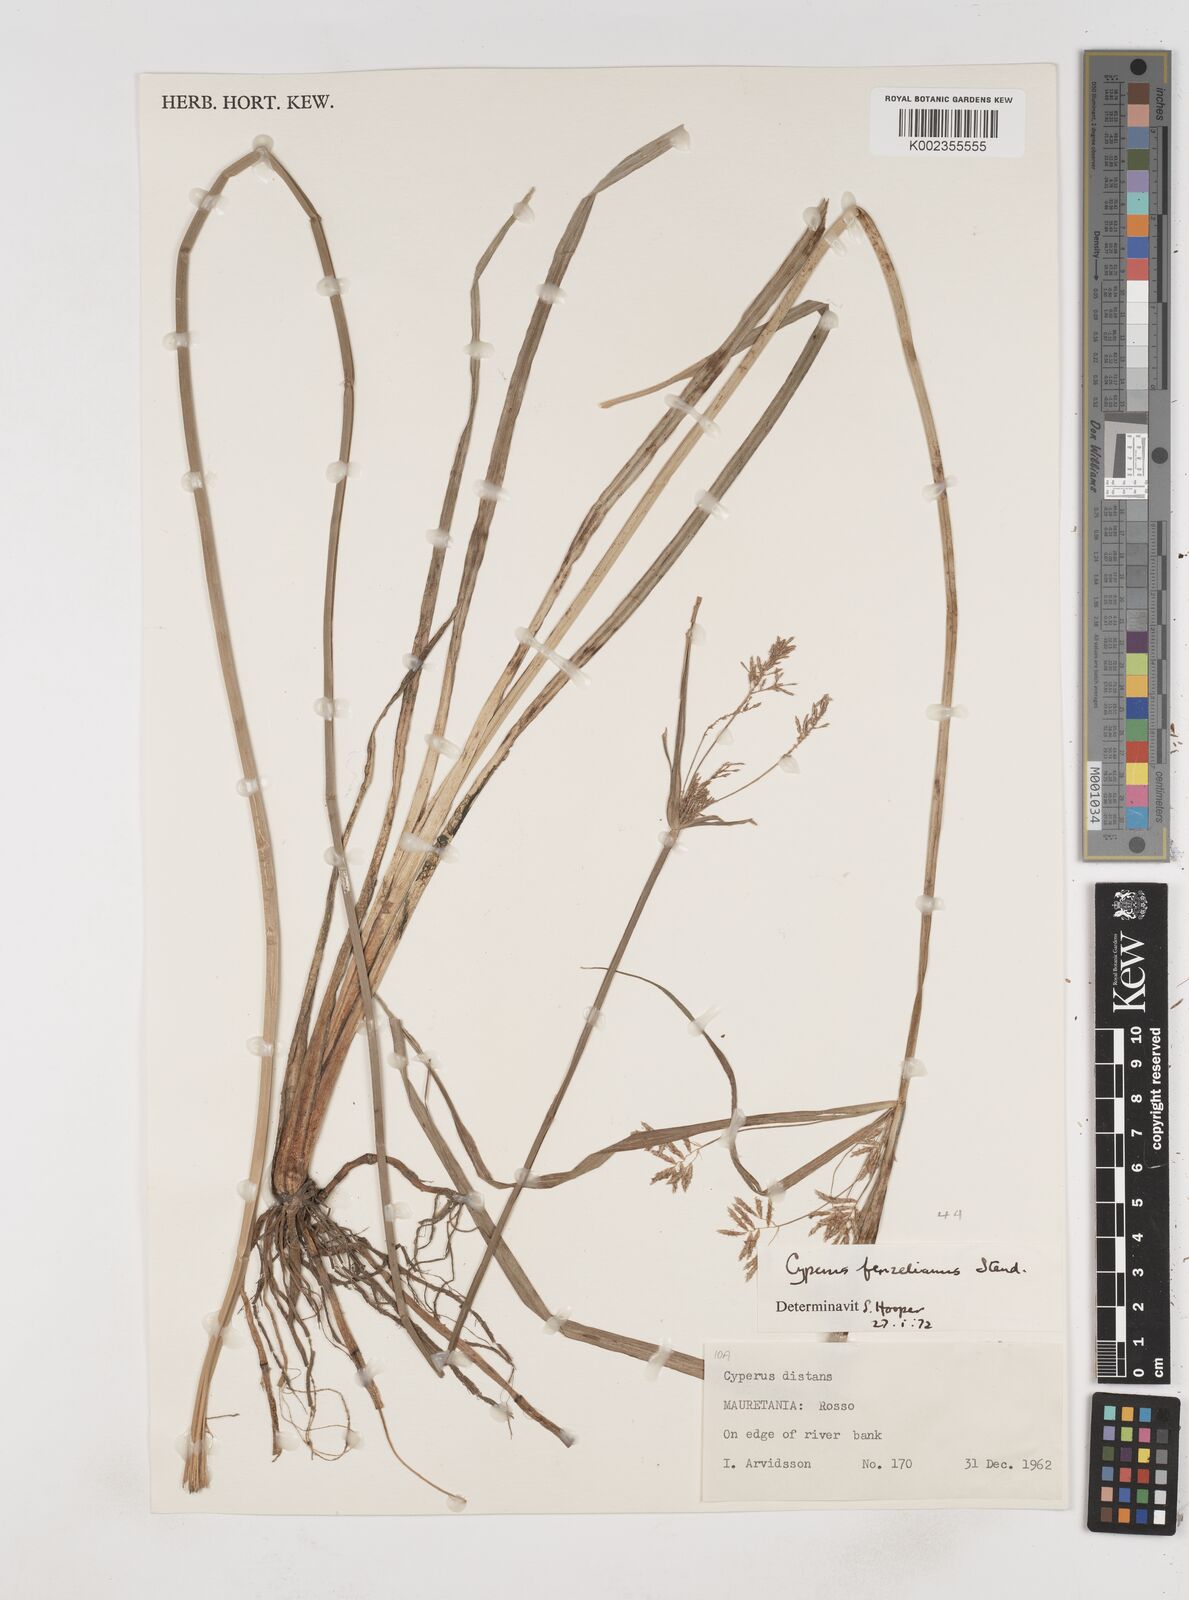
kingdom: Plantae
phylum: Tracheophyta
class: Liliopsida
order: Poales
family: Cyperaceae
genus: Cyperus
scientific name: Cyperus longus
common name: Galingale
